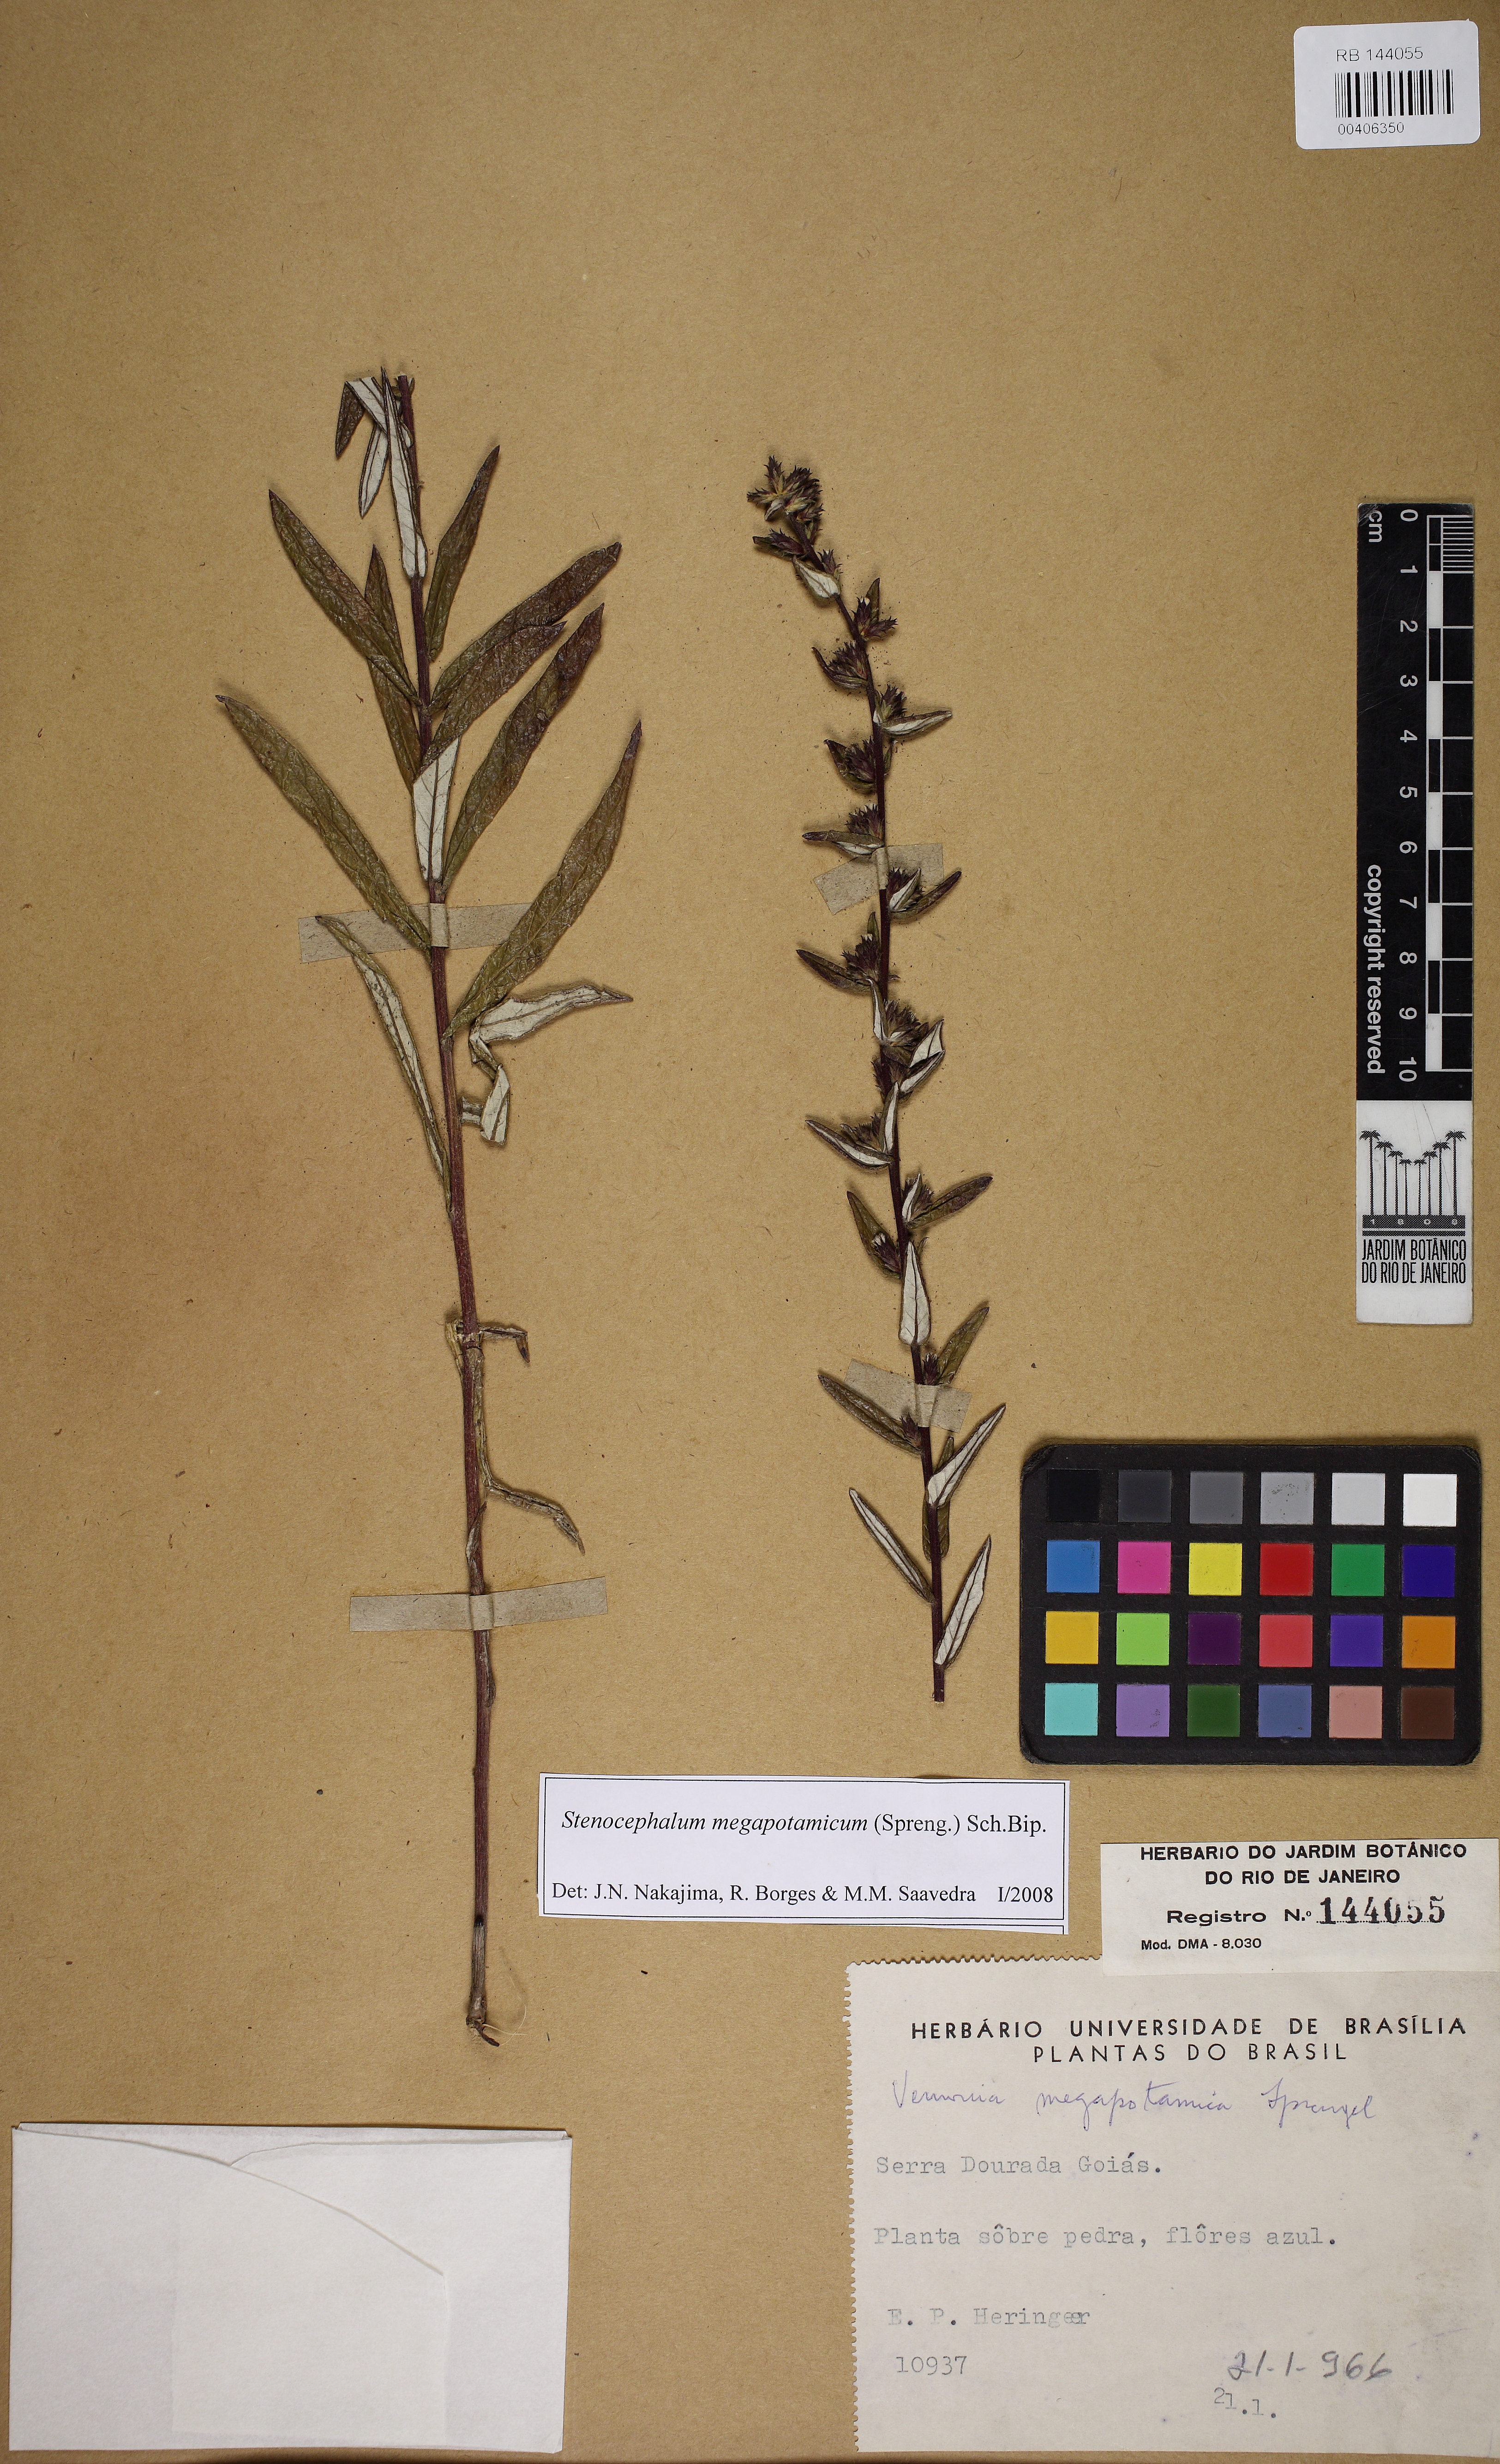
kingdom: Plantae
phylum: Tracheophyta
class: Magnoliopsida
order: Asterales
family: Asteraceae
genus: Stenocephalum
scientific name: Stenocephalum megapotamicum
